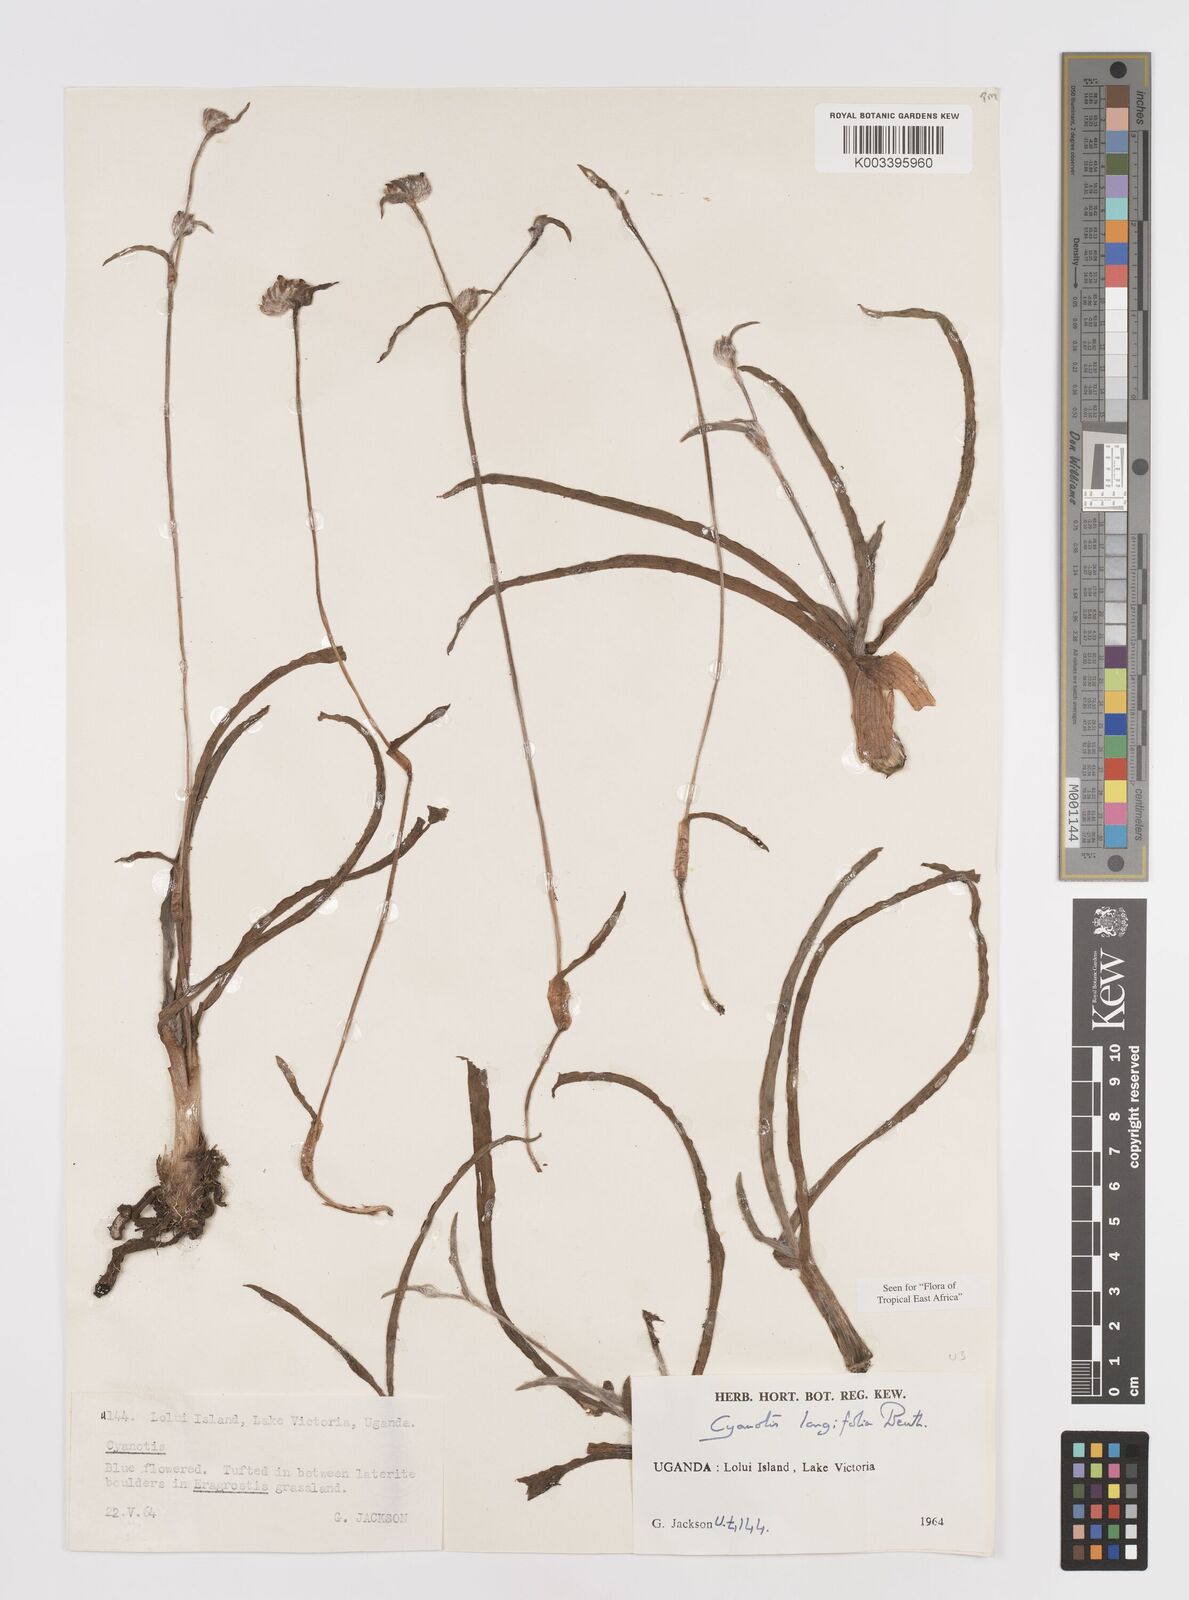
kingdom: Plantae
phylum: Tracheophyta
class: Liliopsida
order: Commelinales
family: Commelinaceae
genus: Cyanotis
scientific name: Cyanotis longifolia
